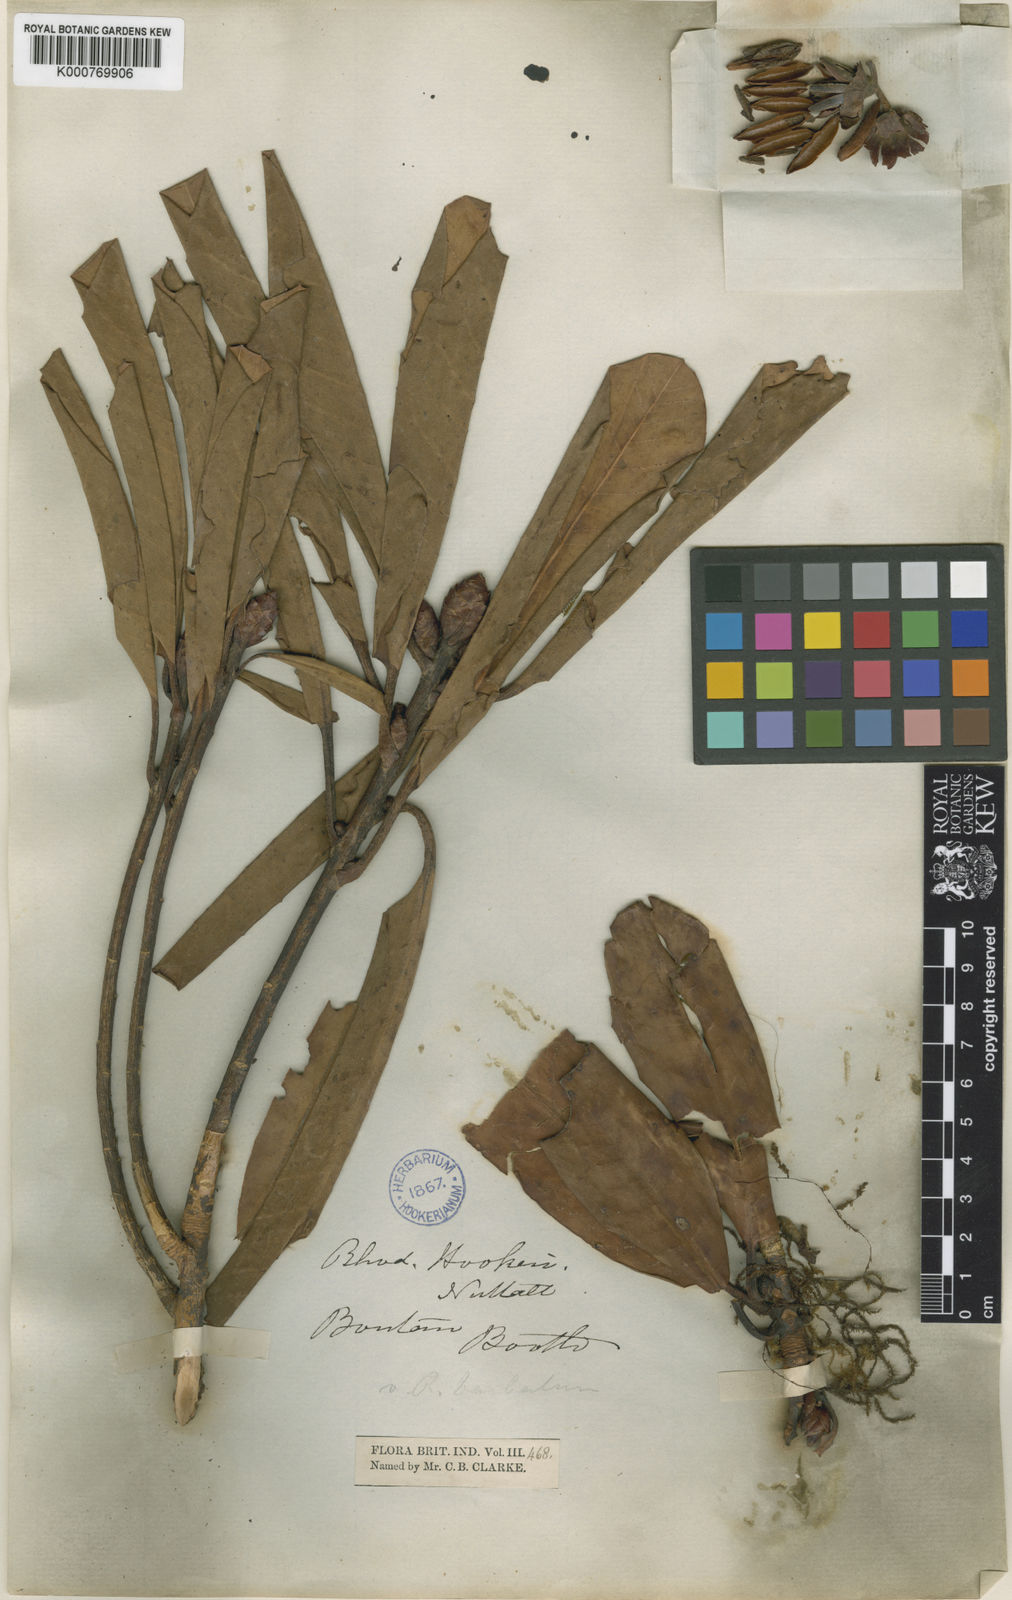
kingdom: Plantae
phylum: Tracheophyta
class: Magnoliopsida
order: Ericales
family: Ericaceae
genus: Rhododendron
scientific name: Rhododendron
